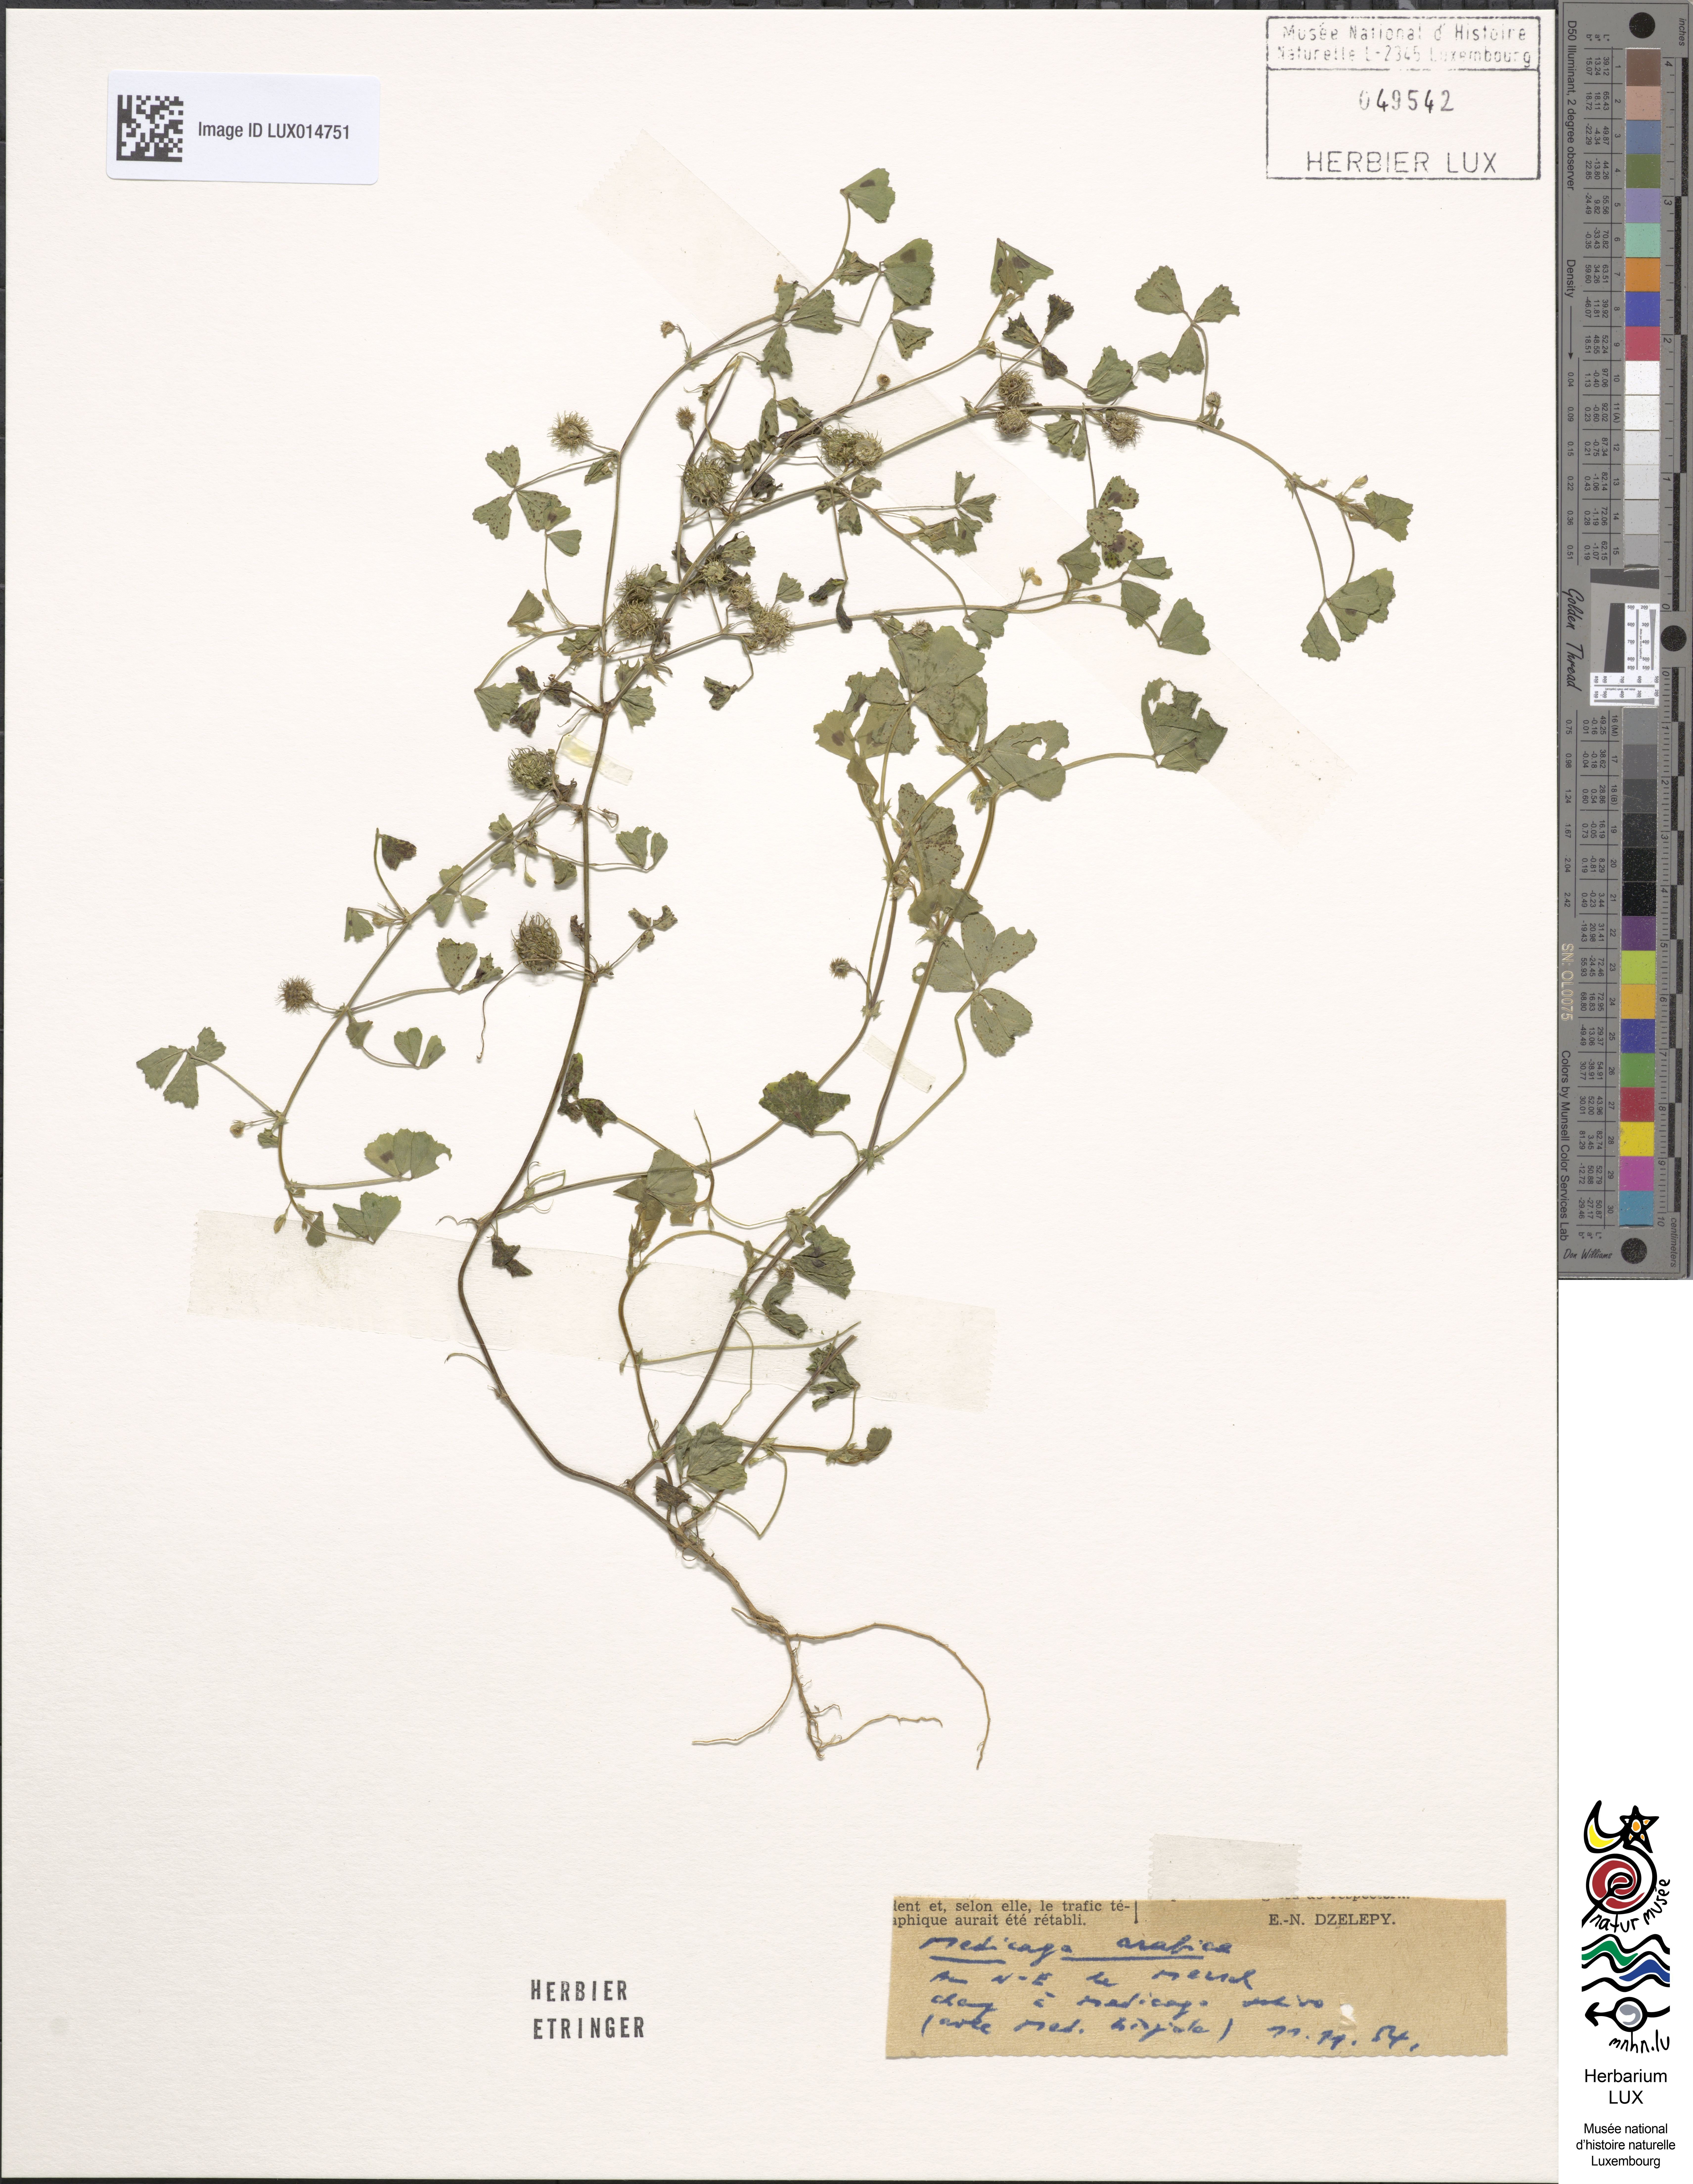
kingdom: Plantae
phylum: Tracheophyta
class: Magnoliopsida
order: Fabales
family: Fabaceae
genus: Medicago
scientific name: Medicago arabica
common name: Spotted medick
